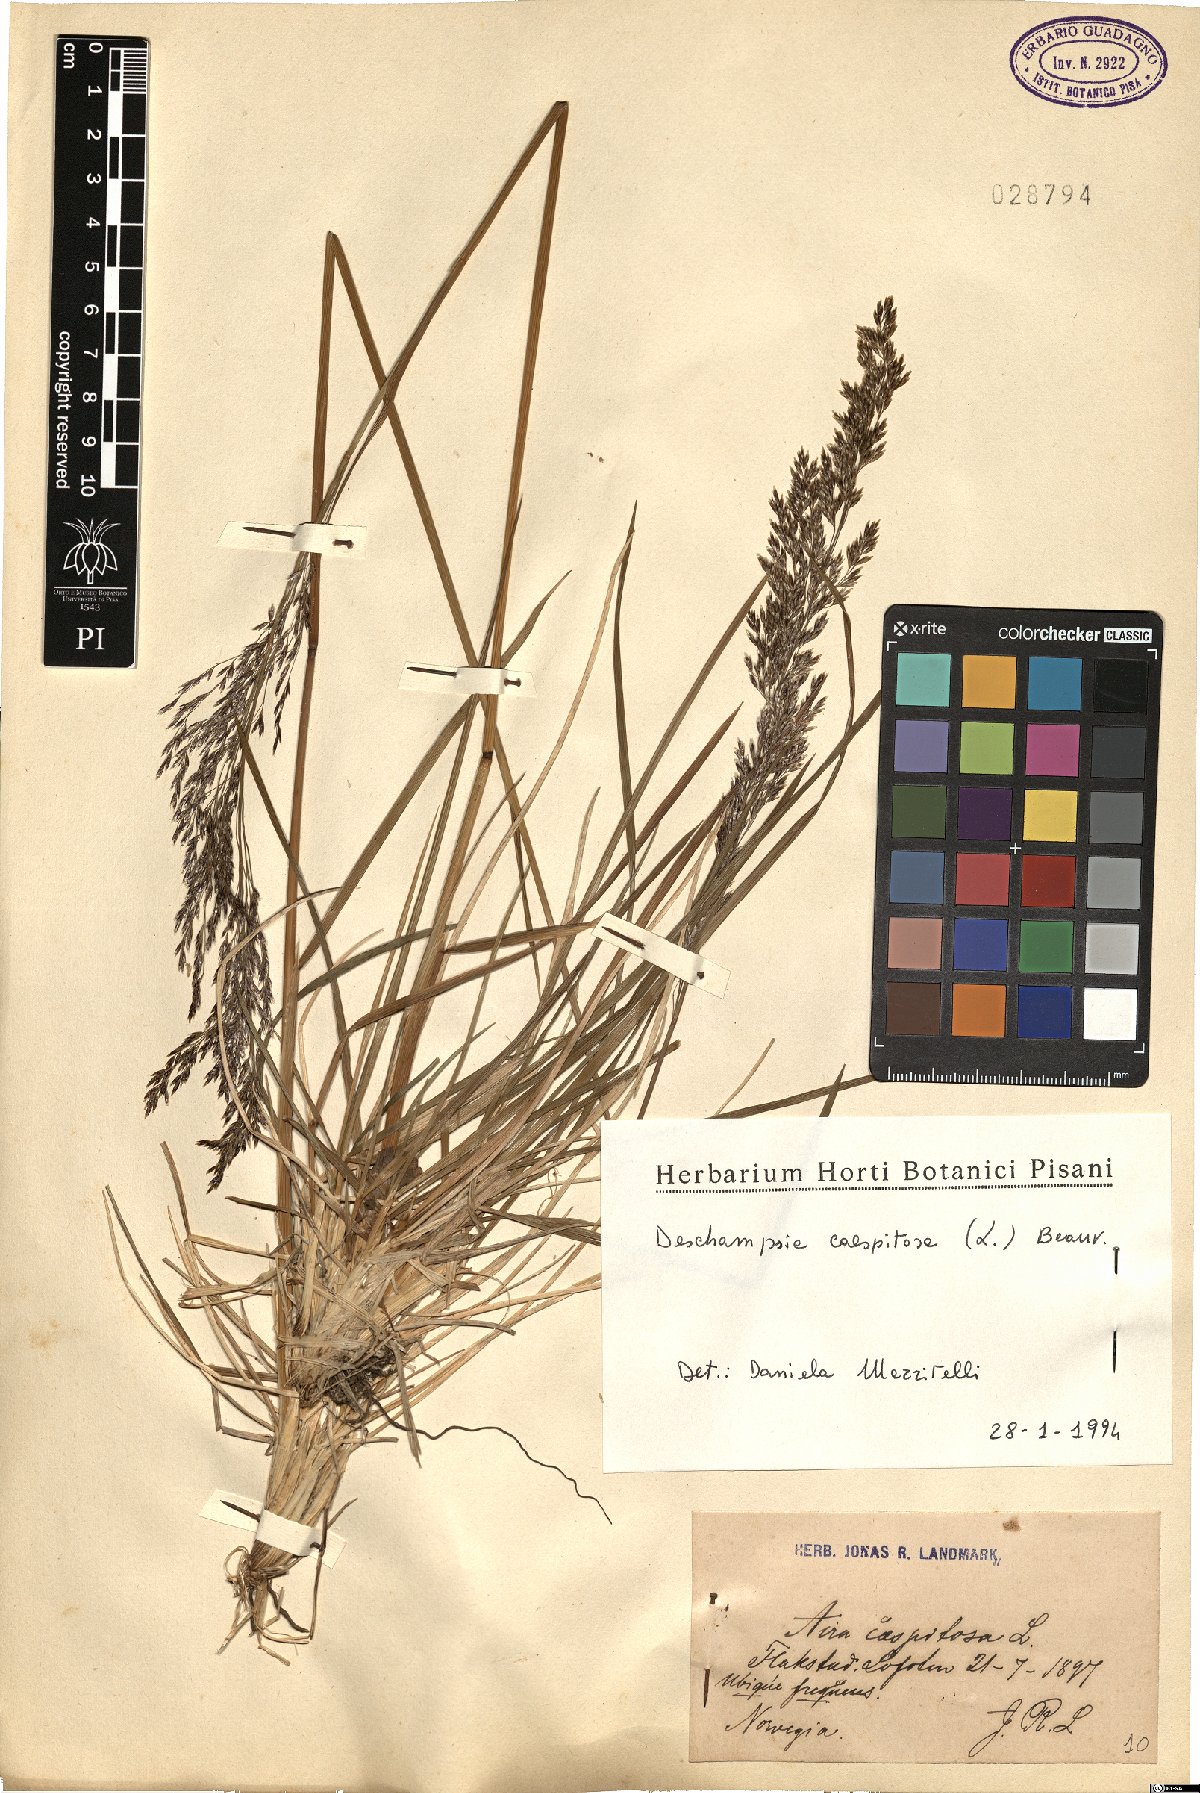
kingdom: Plantae
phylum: Tracheophyta
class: Liliopsida
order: Poales
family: Poaceae
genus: Deschampsia
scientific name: Deschampsia cespitosa
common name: Tufted hair-grass
